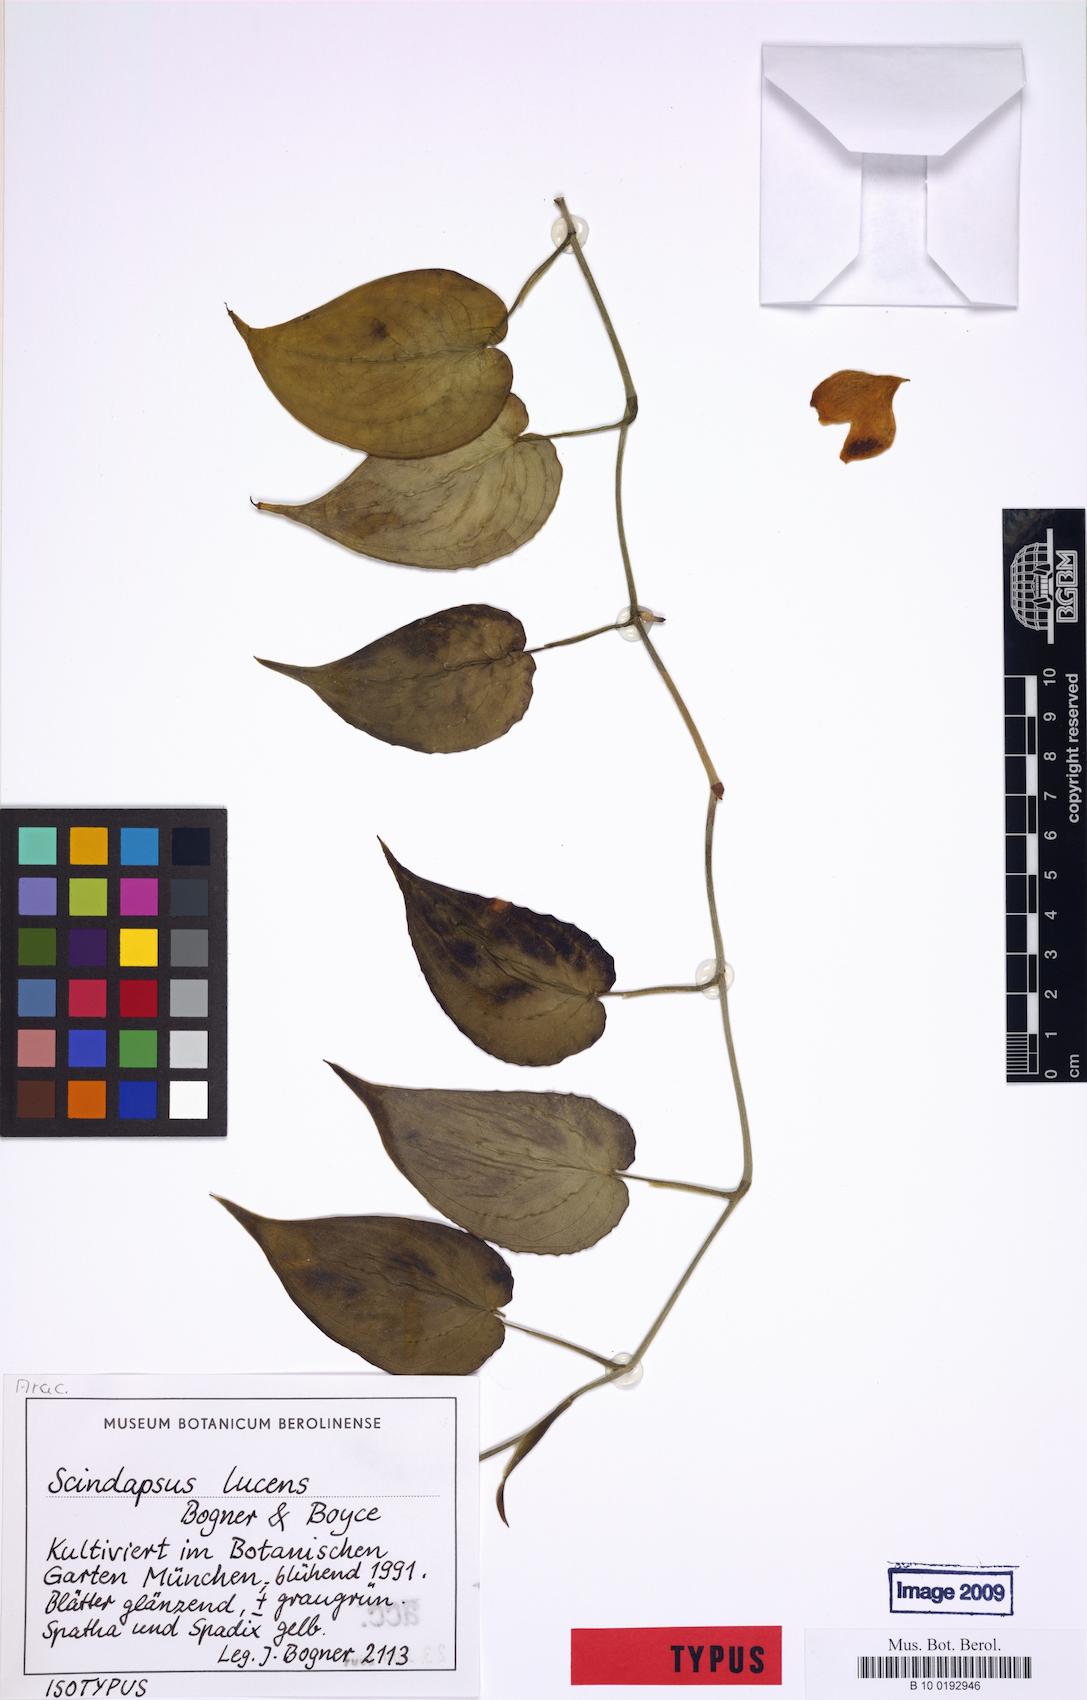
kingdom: Plantae
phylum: Tracheophyta
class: Liliopsida
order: Alismatales
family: Araceae
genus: Scindapsus
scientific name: Scindapsus lucens
